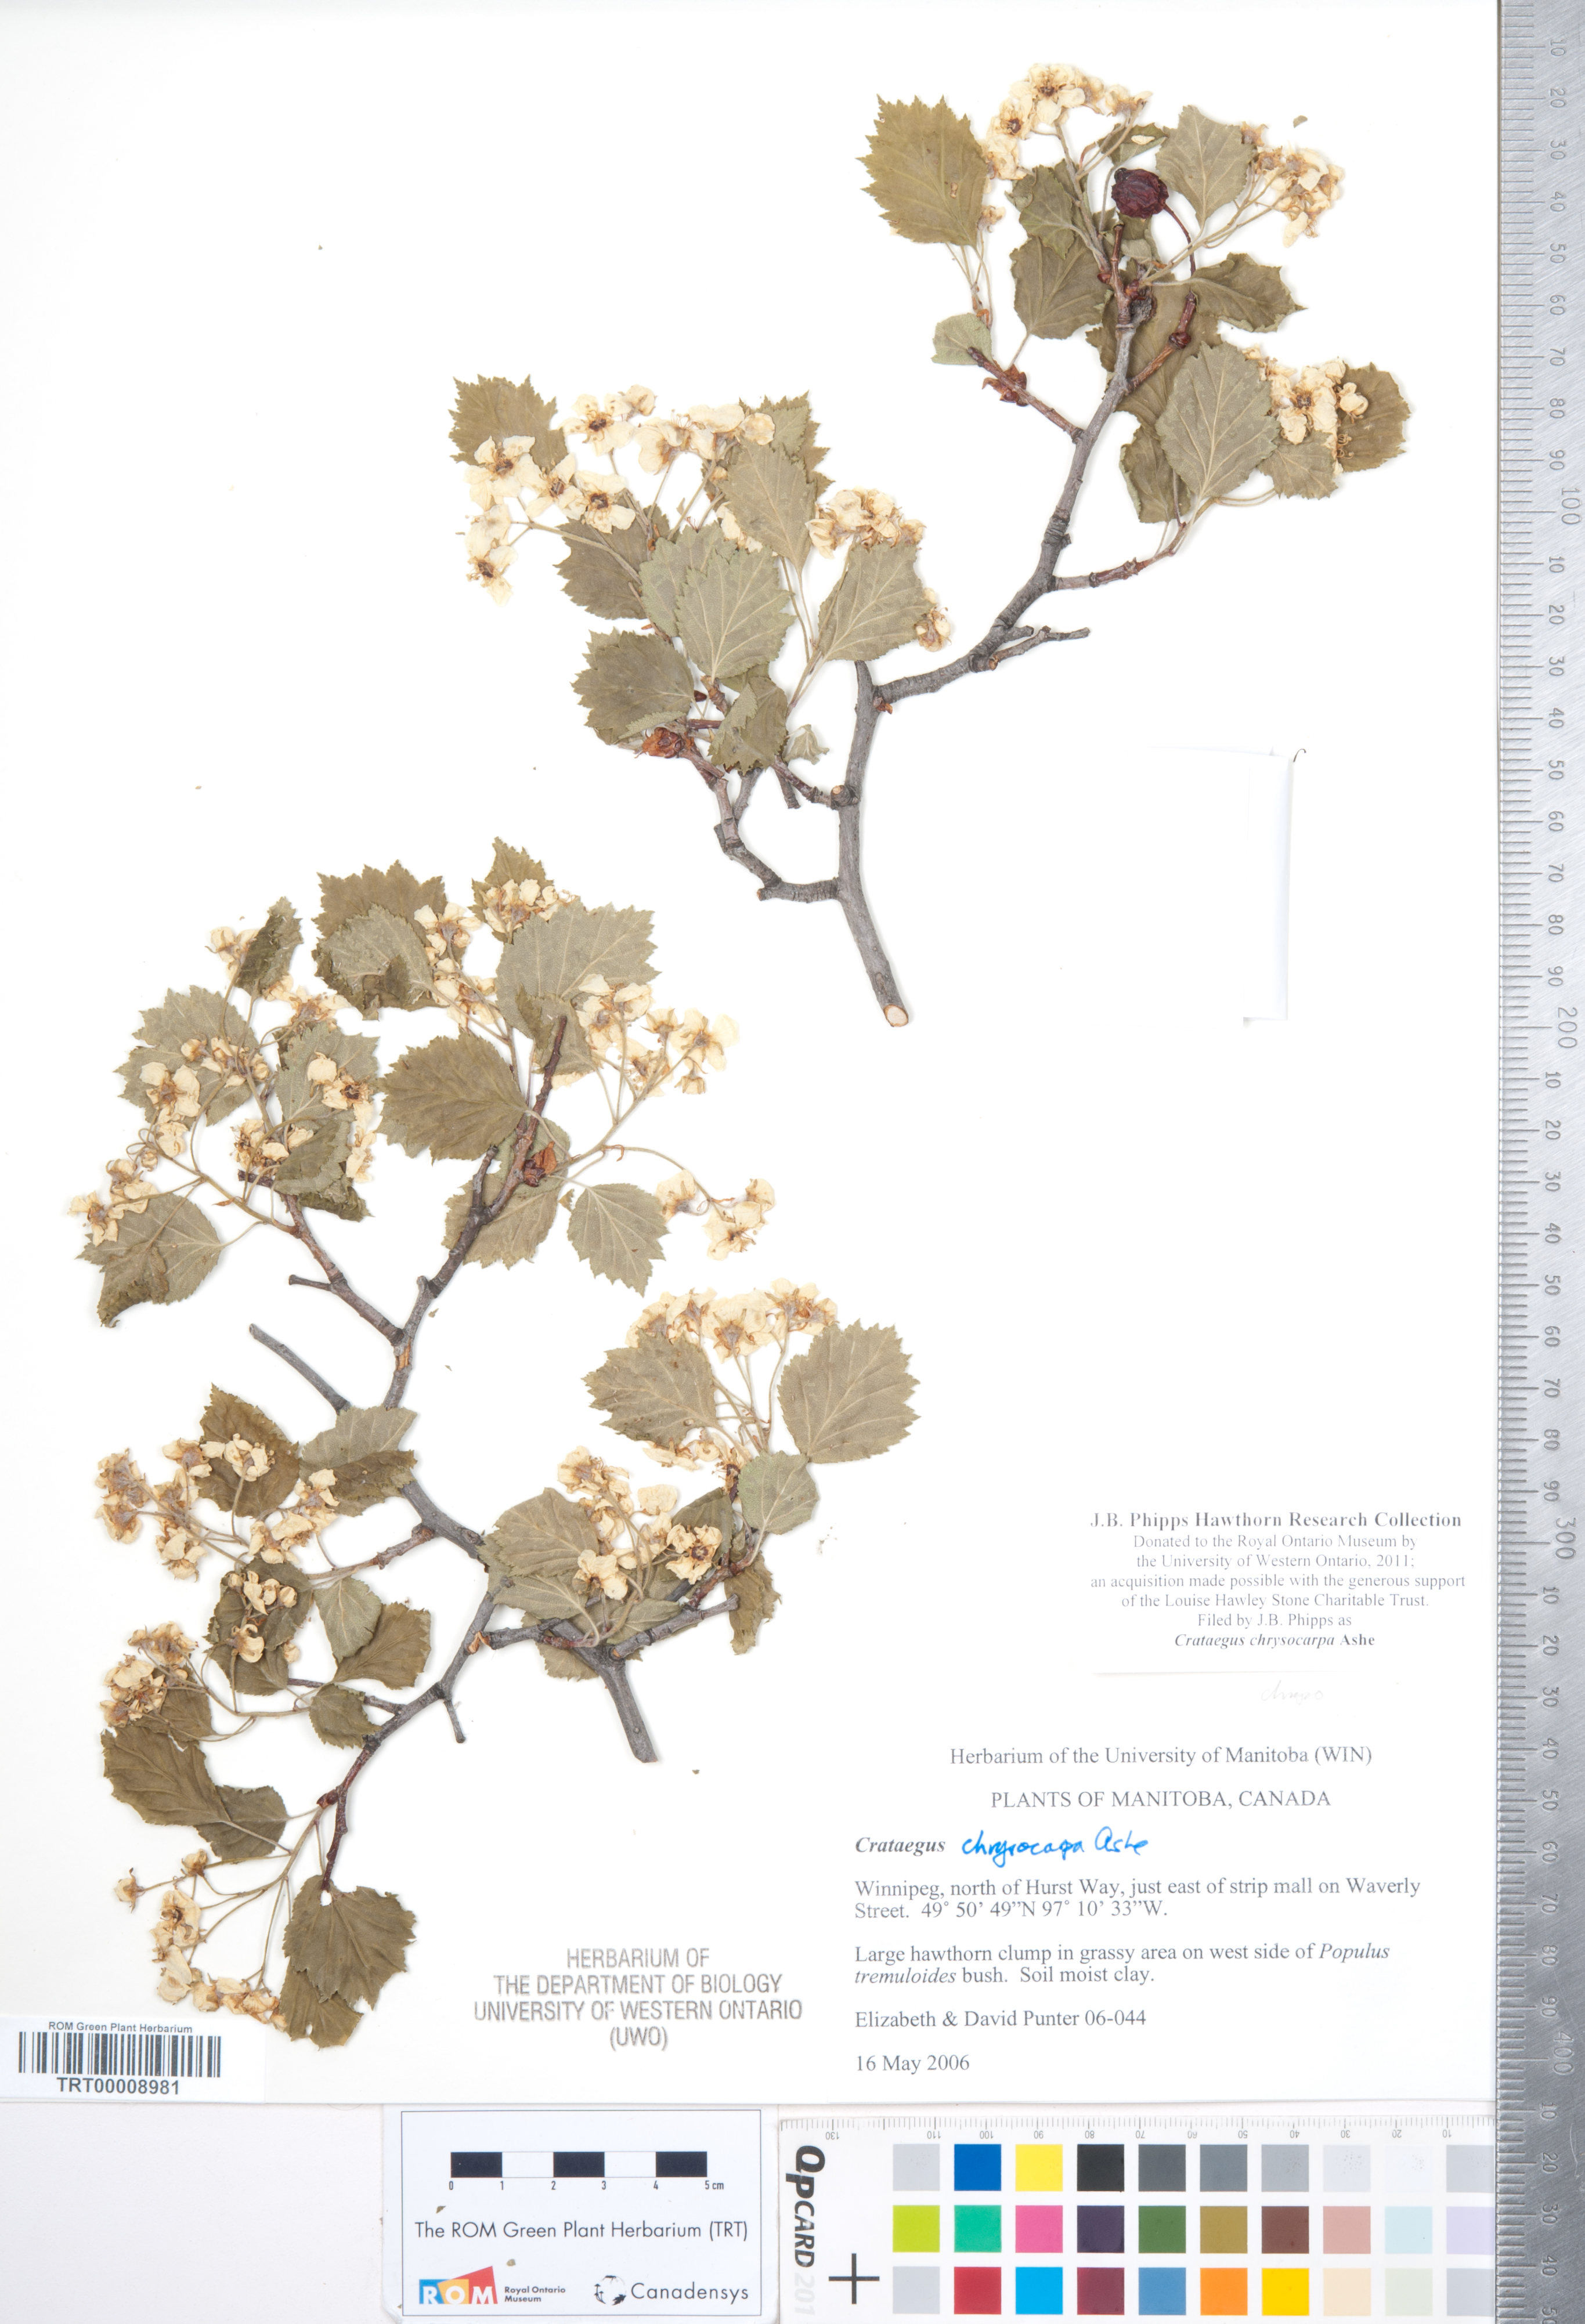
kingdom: Plantae
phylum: Tracheophyta
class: Magnoliopsida
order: Rosales
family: Rosaceae
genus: Crataegus
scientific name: Crataegus chrysocarpa
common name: Fire-berry hawthorn
